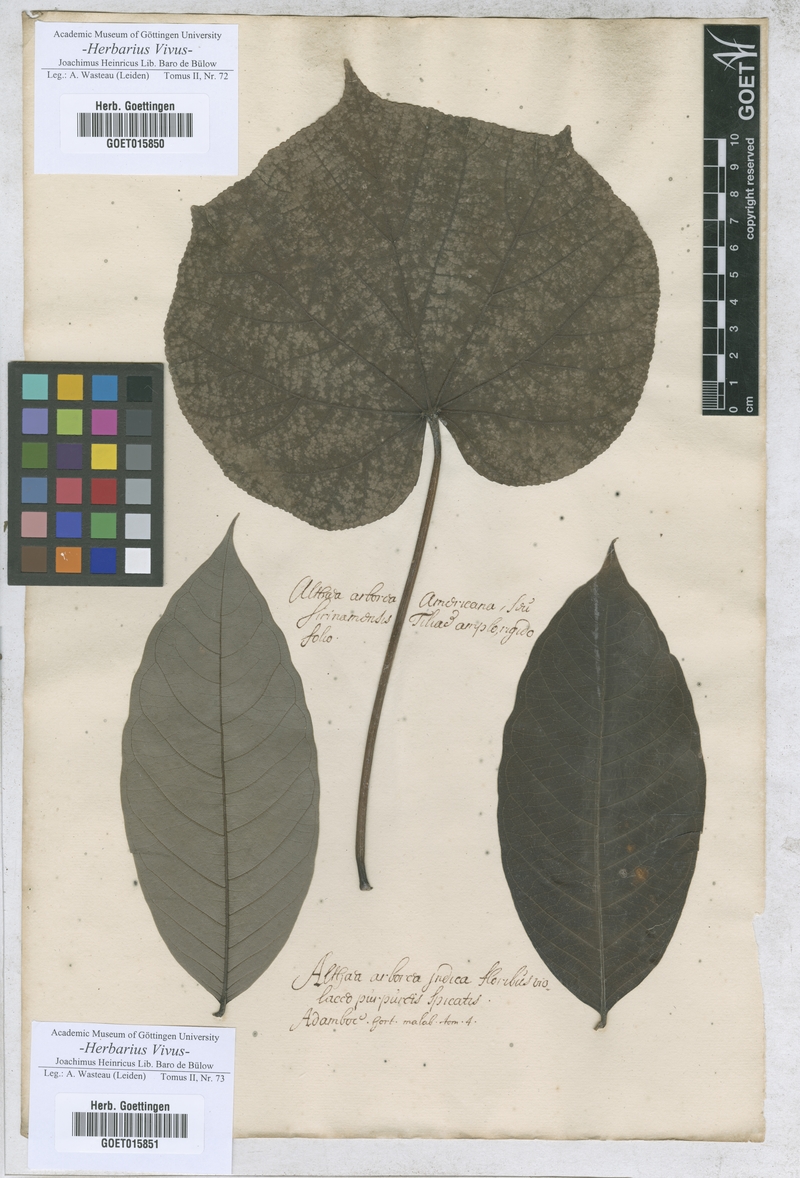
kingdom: Plantae
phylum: Tracheophyta
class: Magnoliopsida
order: Malvales
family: Malvaceae
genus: Althaea
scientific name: Althaea
